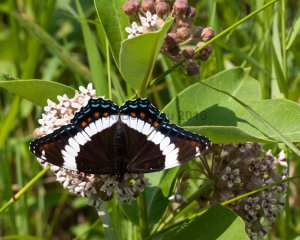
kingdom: Animalia
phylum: Arthropoda
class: Insecta
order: Lepidoptera
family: Nymphalidae
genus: Limenitis
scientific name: Limenitis arthemis
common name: Red-spotted Admiral
